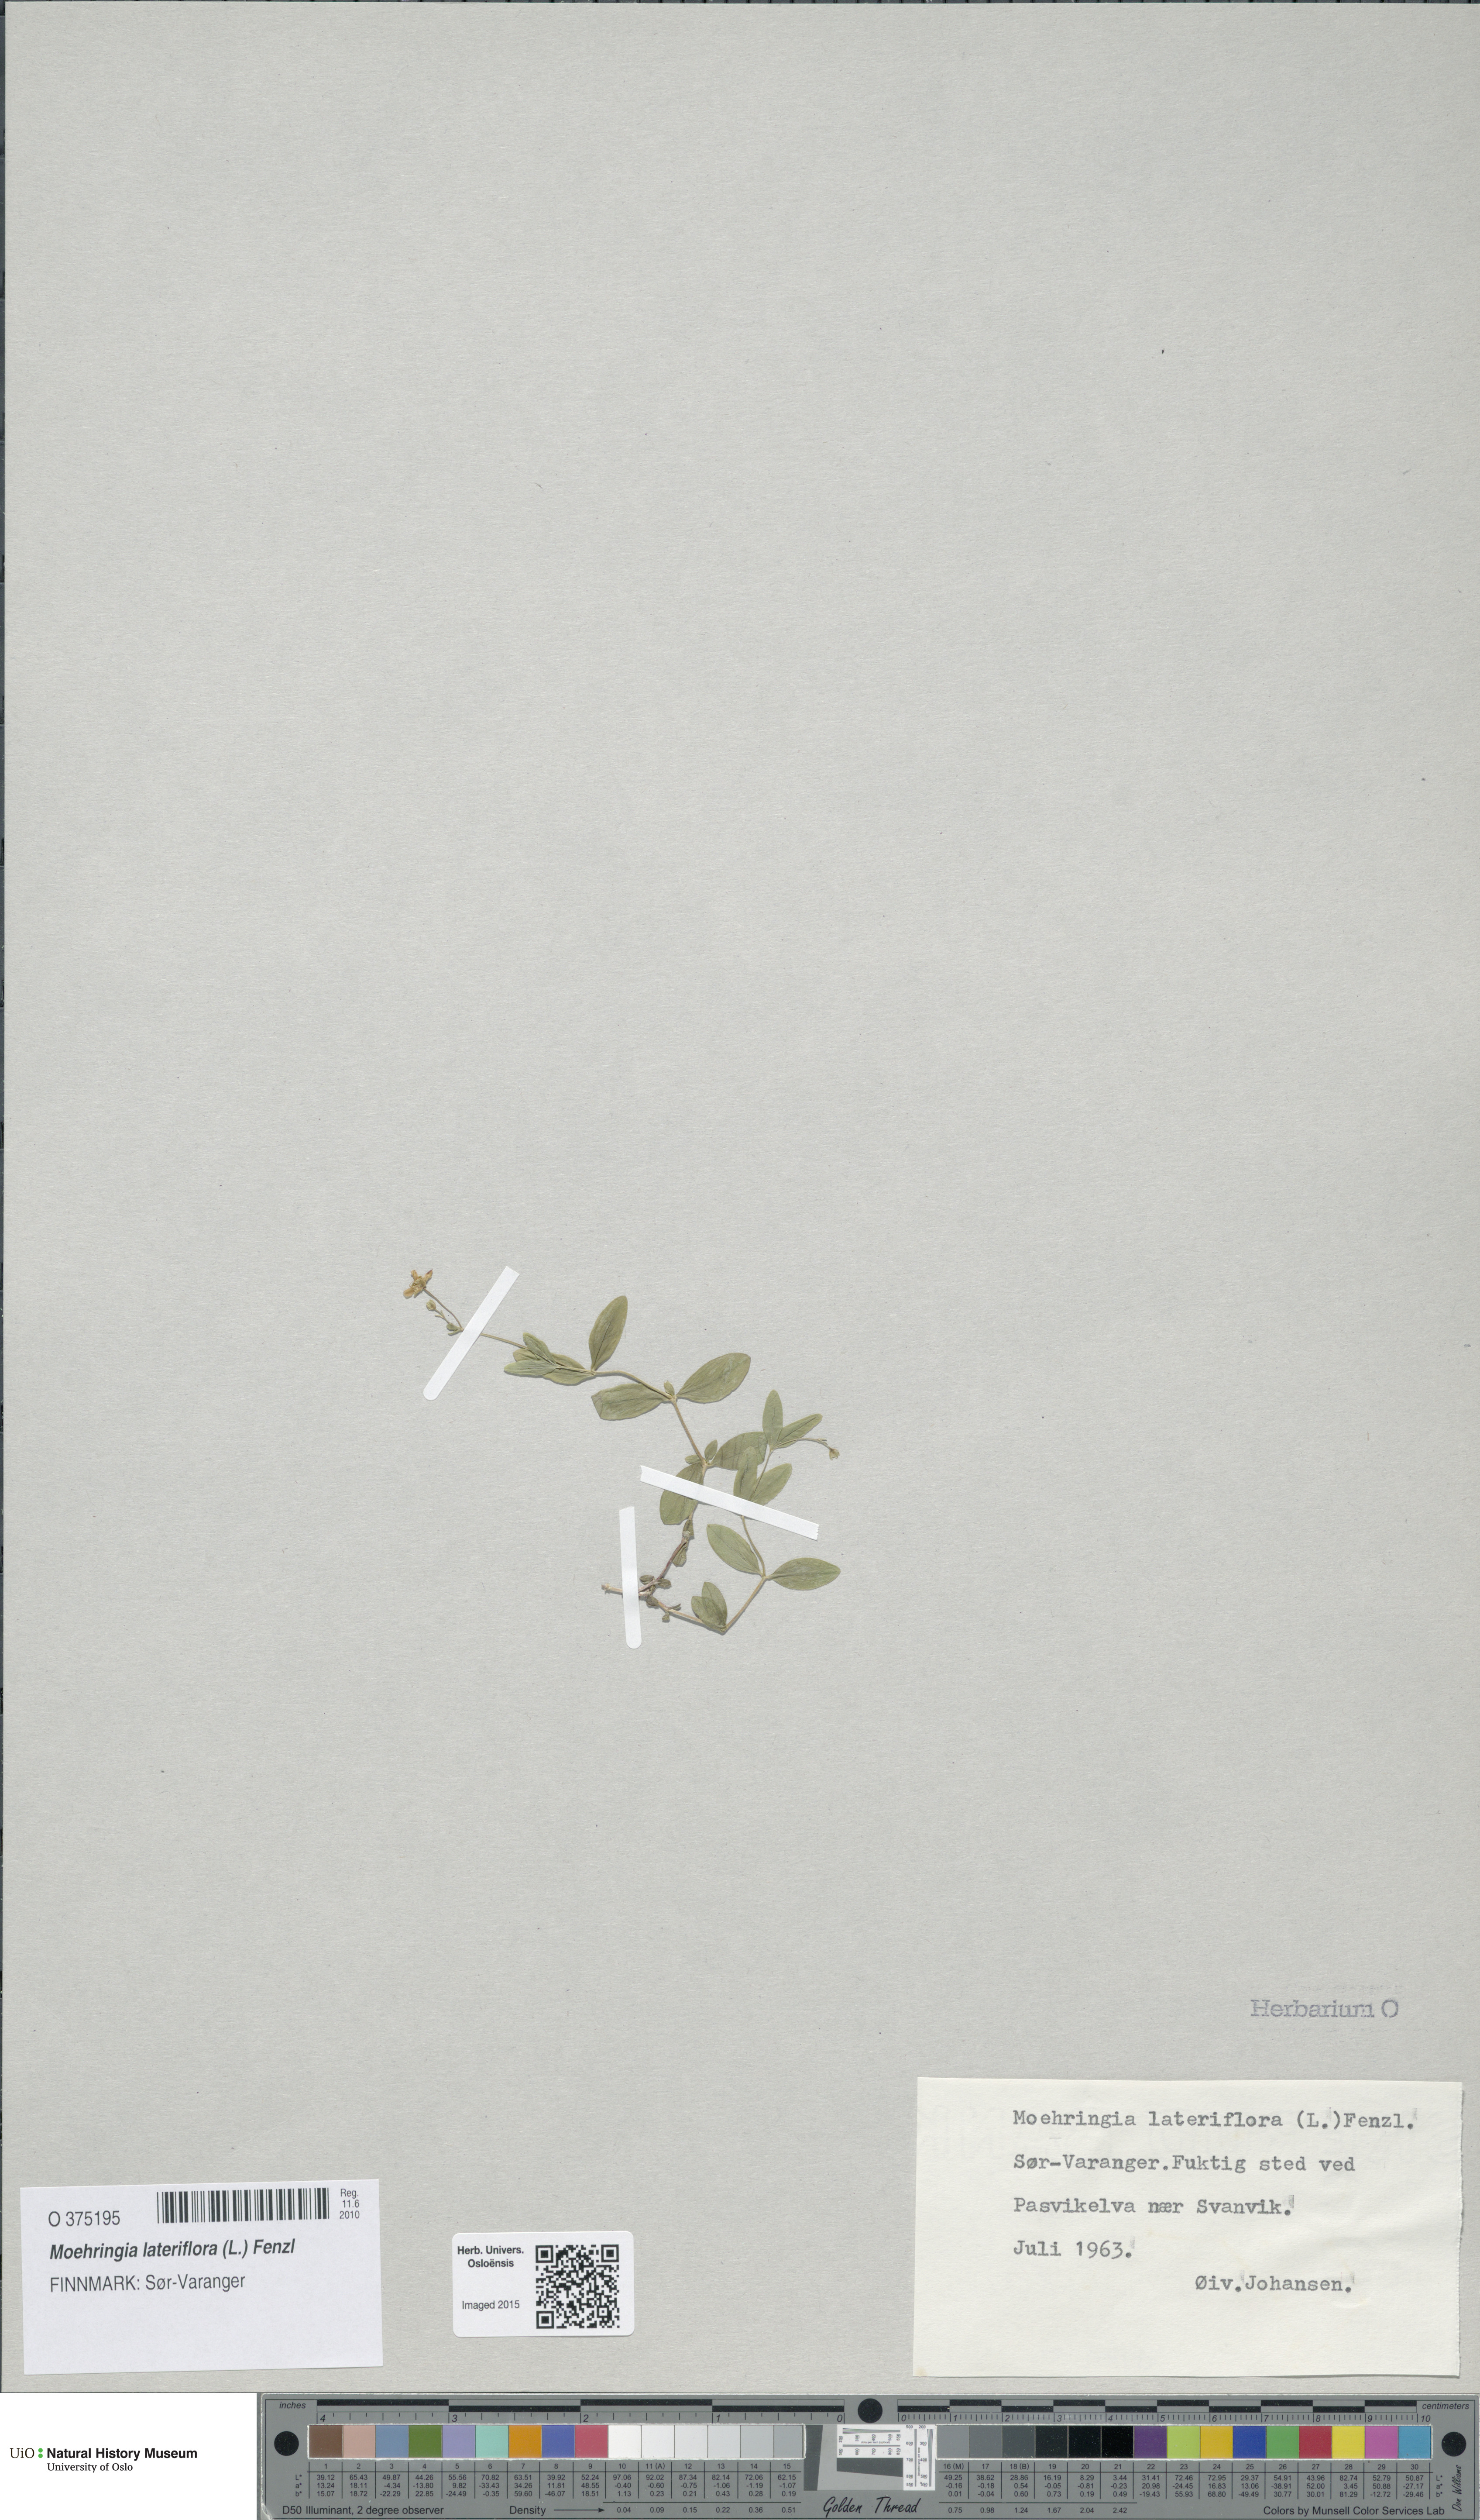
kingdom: Plantae
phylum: Tracheophyta
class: Magnoliopsida
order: Caryophyllales
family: Caryophyllaceae
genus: Moehringia
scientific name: Moehringia lateriflora
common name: Blunt-leaved sandwort
